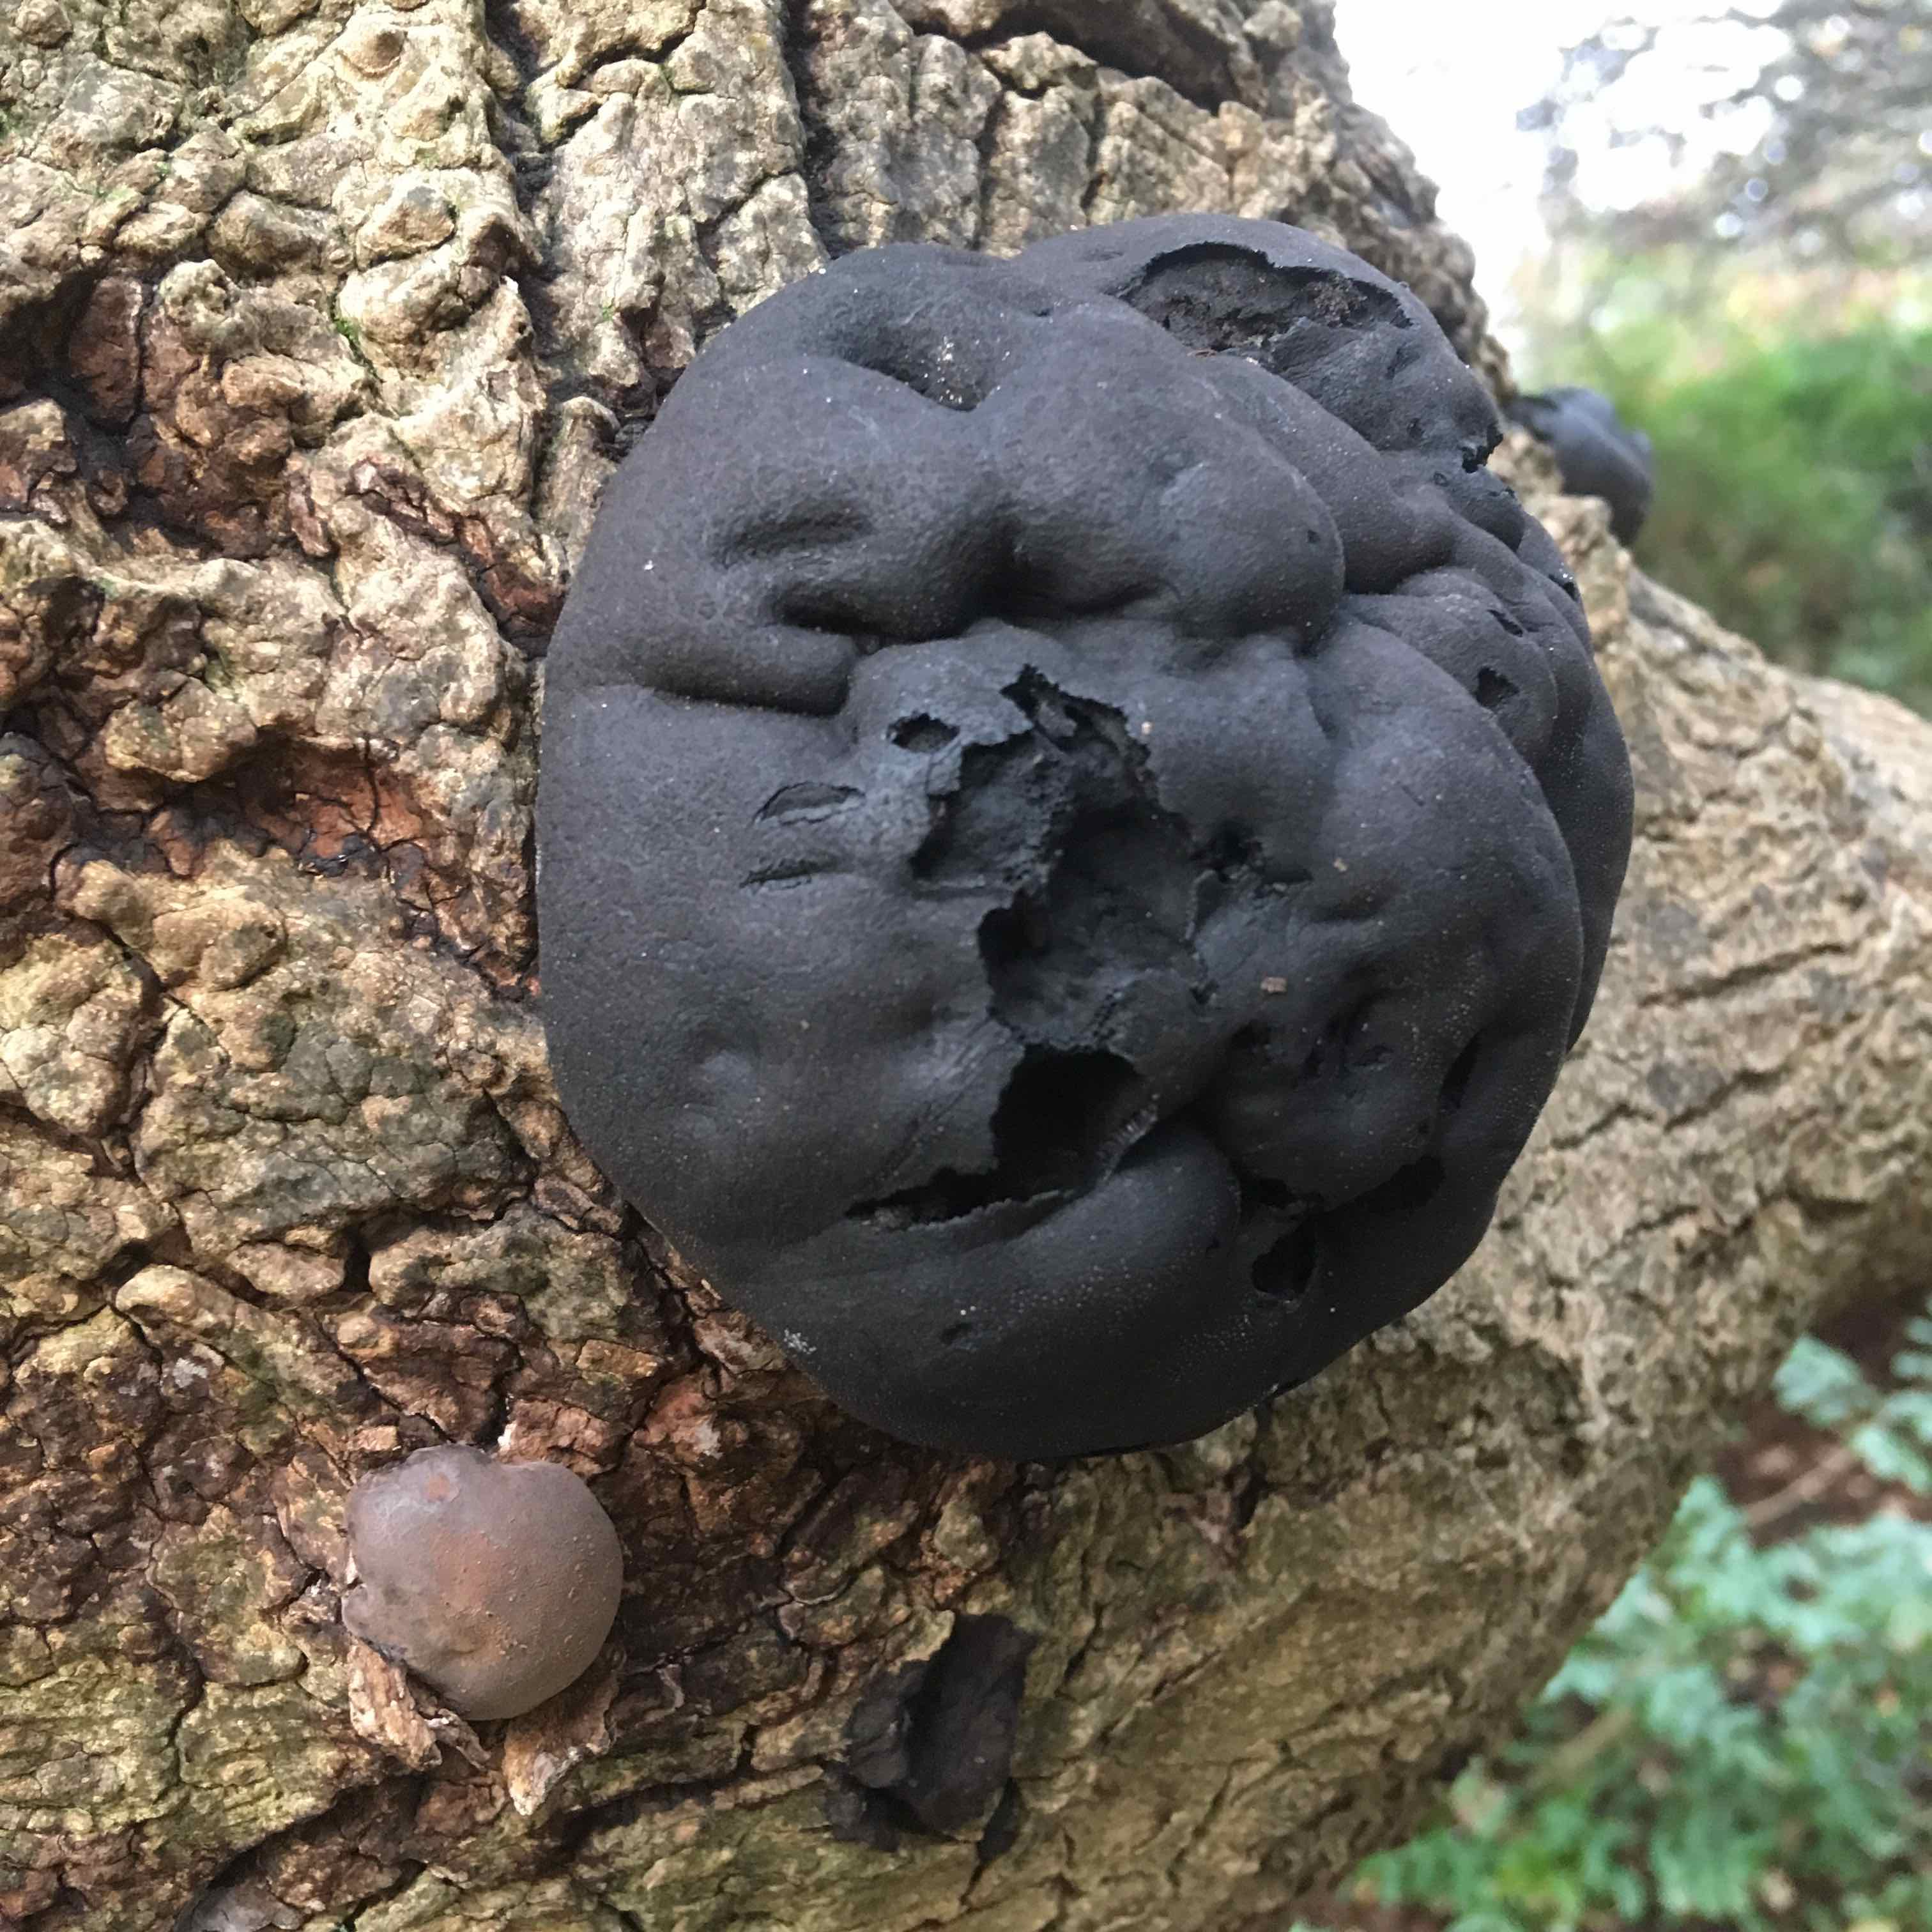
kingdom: Fungi
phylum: Ascomycota
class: Sordariomycetes
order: Xylariales
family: Hypoxylaceae
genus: Daldinia
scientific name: Daldinia concentrica
